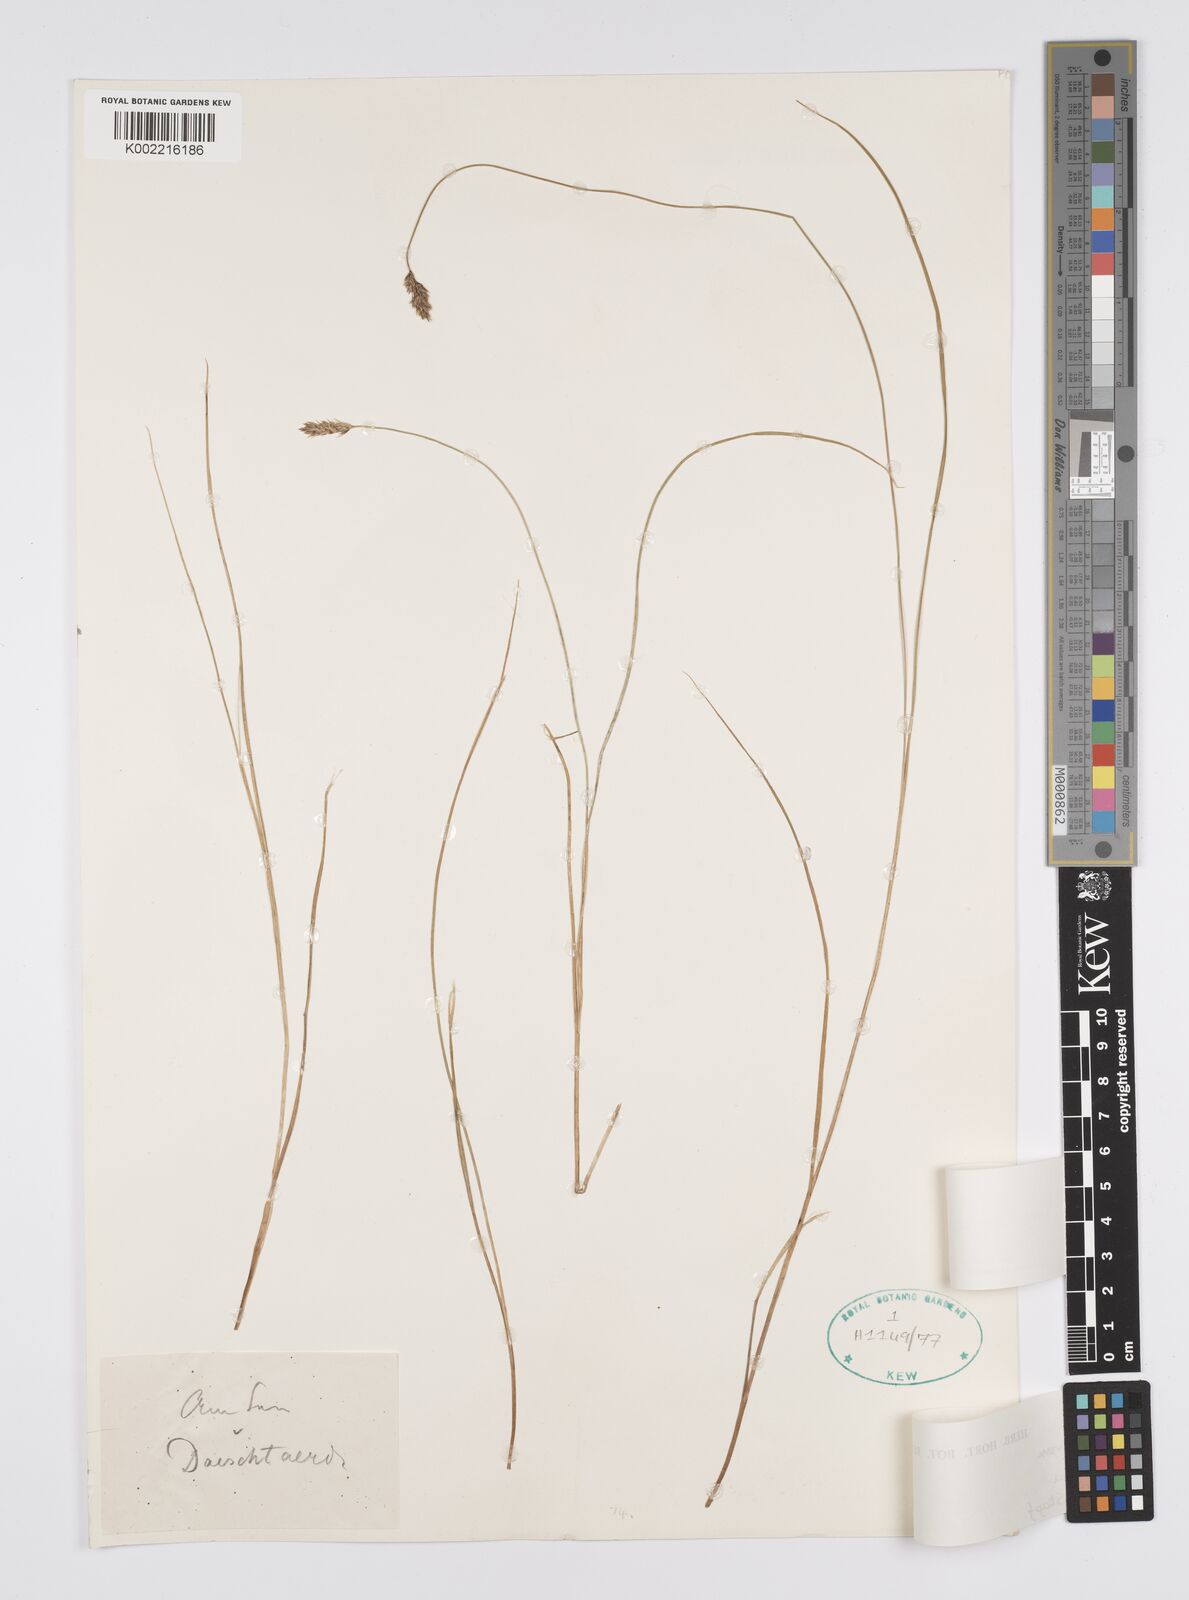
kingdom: Plantae
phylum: Tracheophyta
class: Liliopsida
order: Poales
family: Cyperaceae
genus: Carex
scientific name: Carex divisa
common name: Divided sedge
